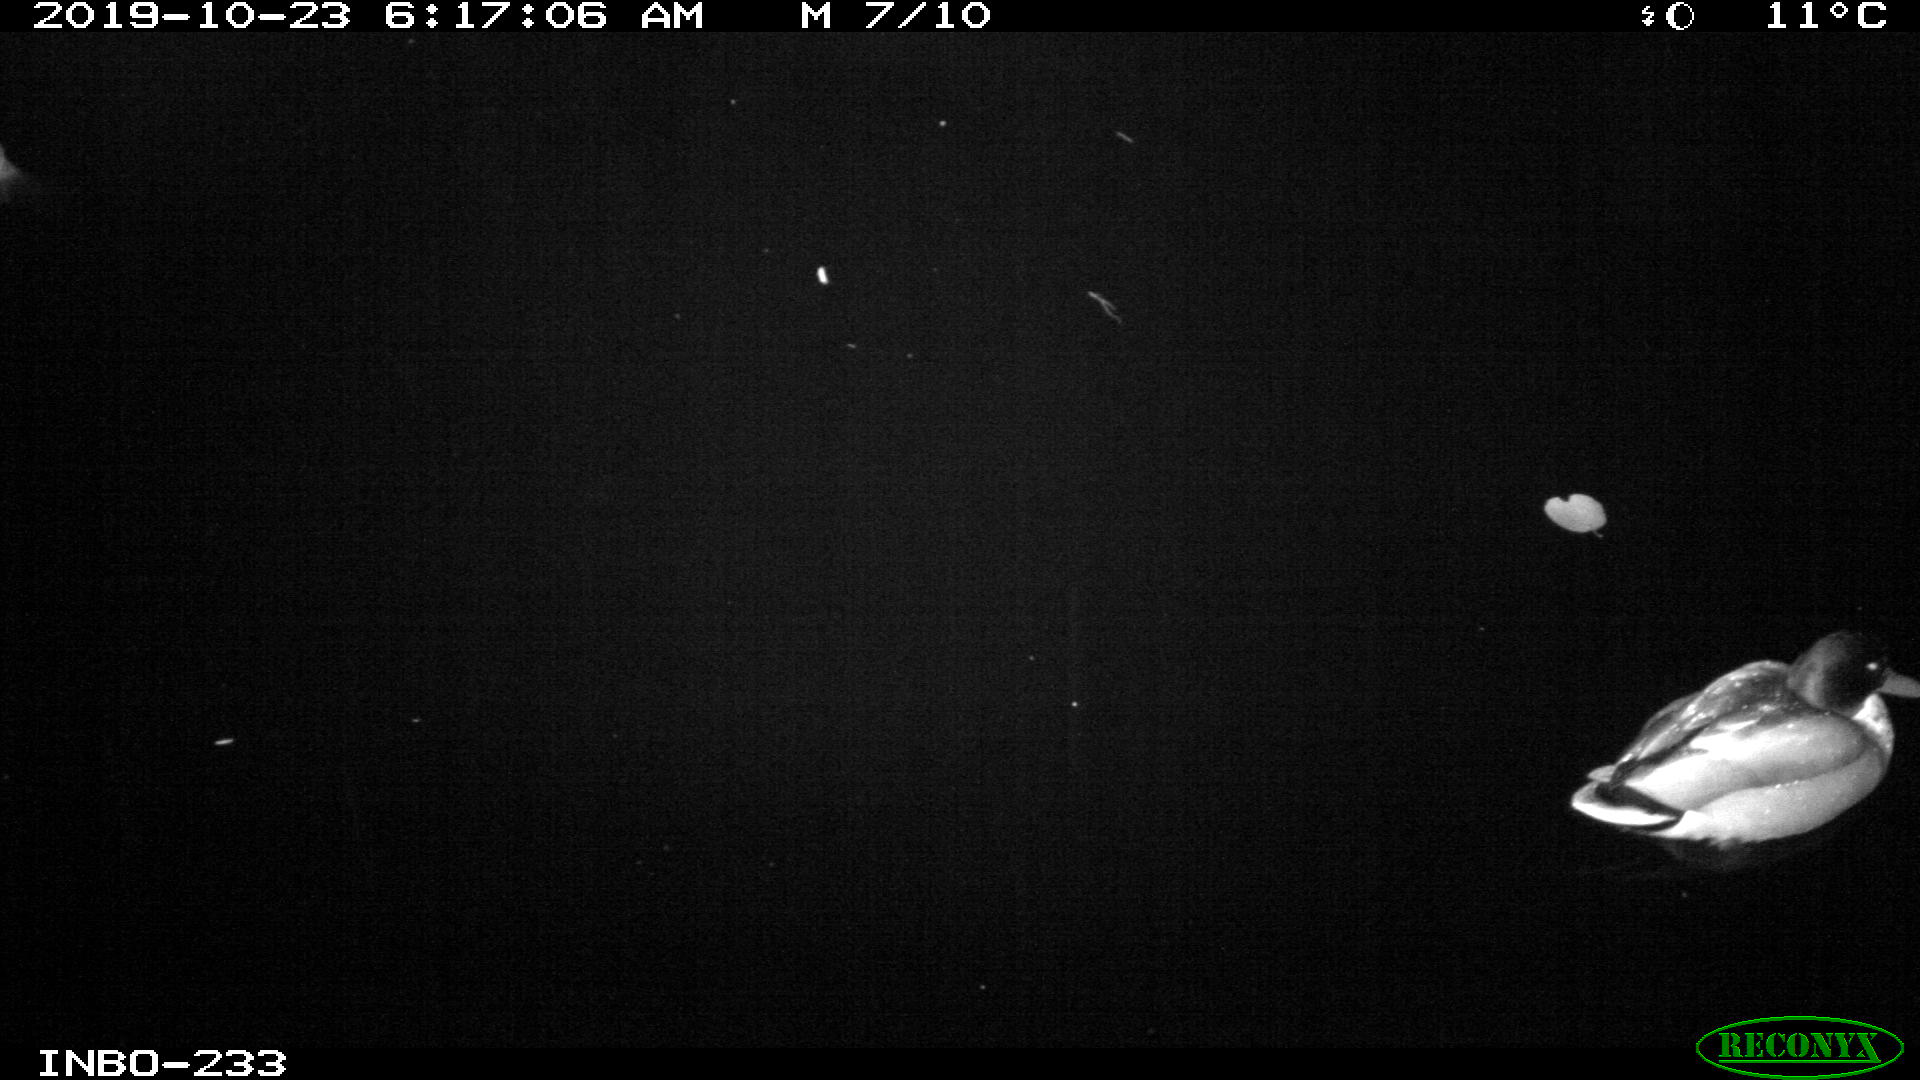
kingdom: Animalia
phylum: Chordata
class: Aves
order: Anseriformes
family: Anatidae
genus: Anas
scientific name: Anas platyrhynchos
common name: Mallard
